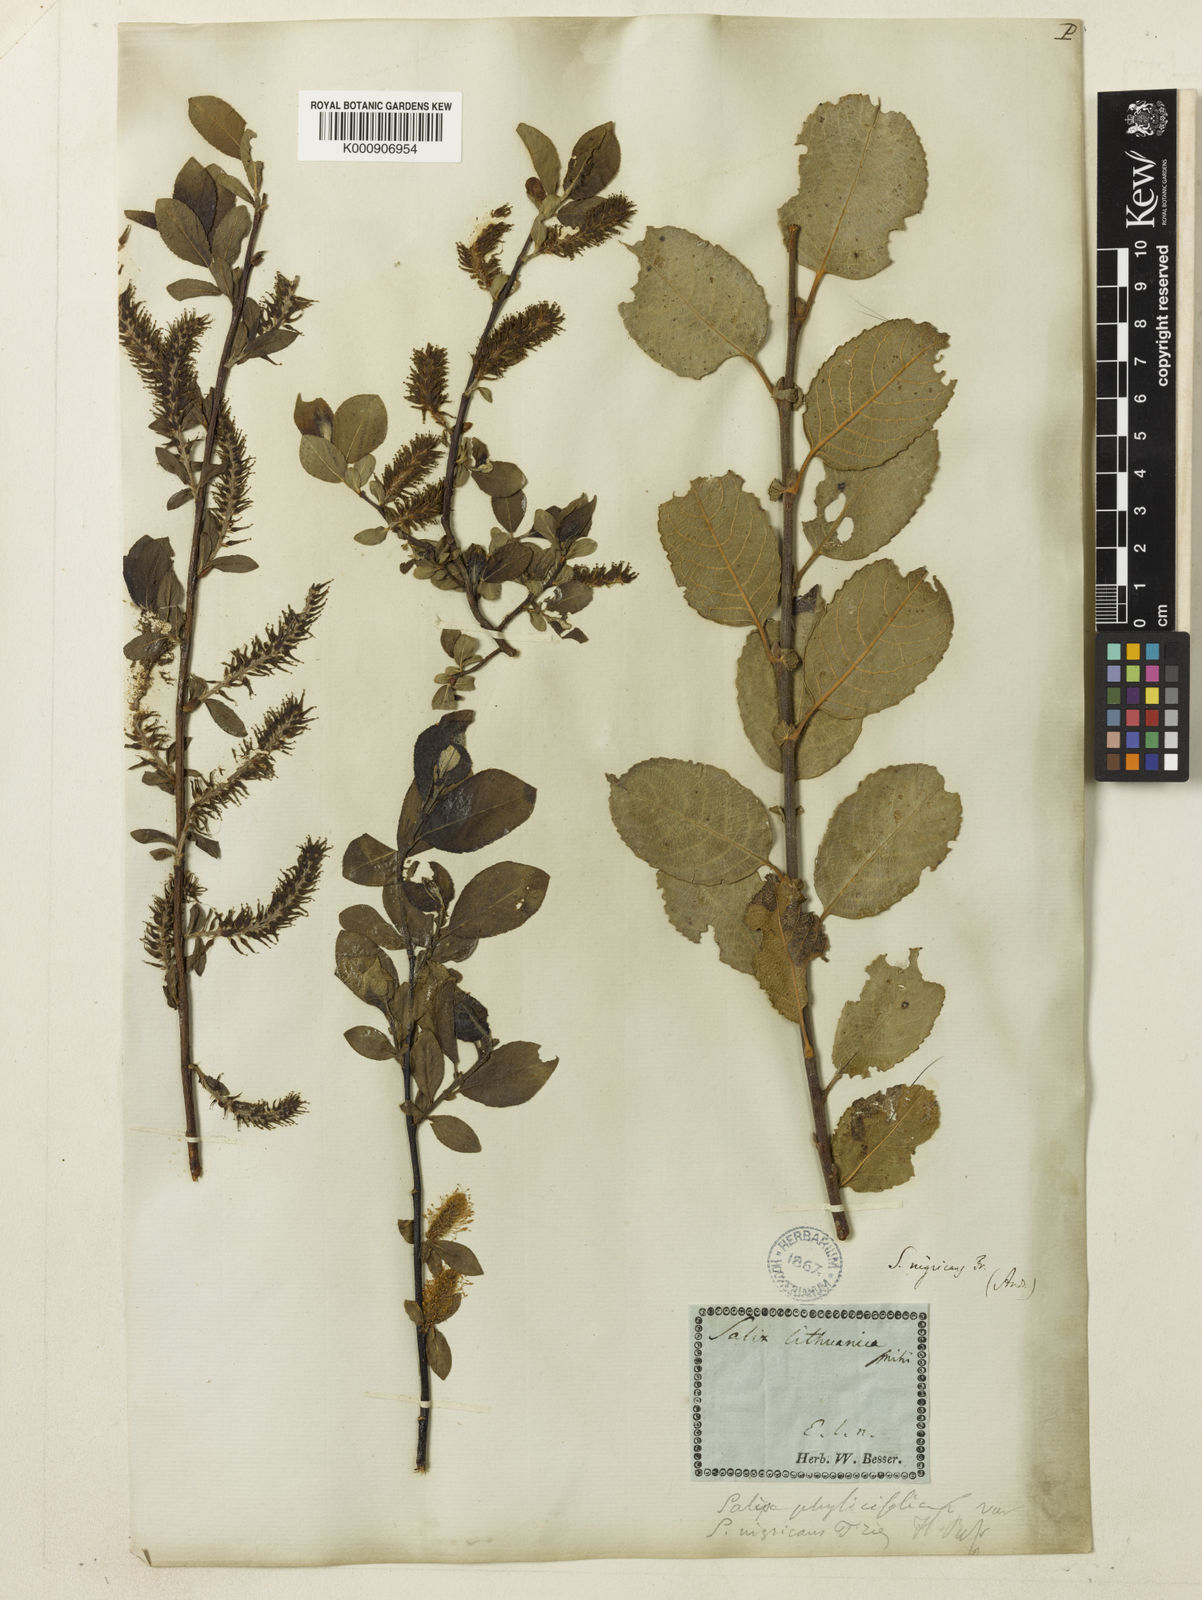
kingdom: Plantae
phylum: Tracheophyta
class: Magnoliopsida
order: Malpighiales
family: Salicaceae
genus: Salix
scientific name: Salix myrsinifolia
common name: Dark-leaved willow
